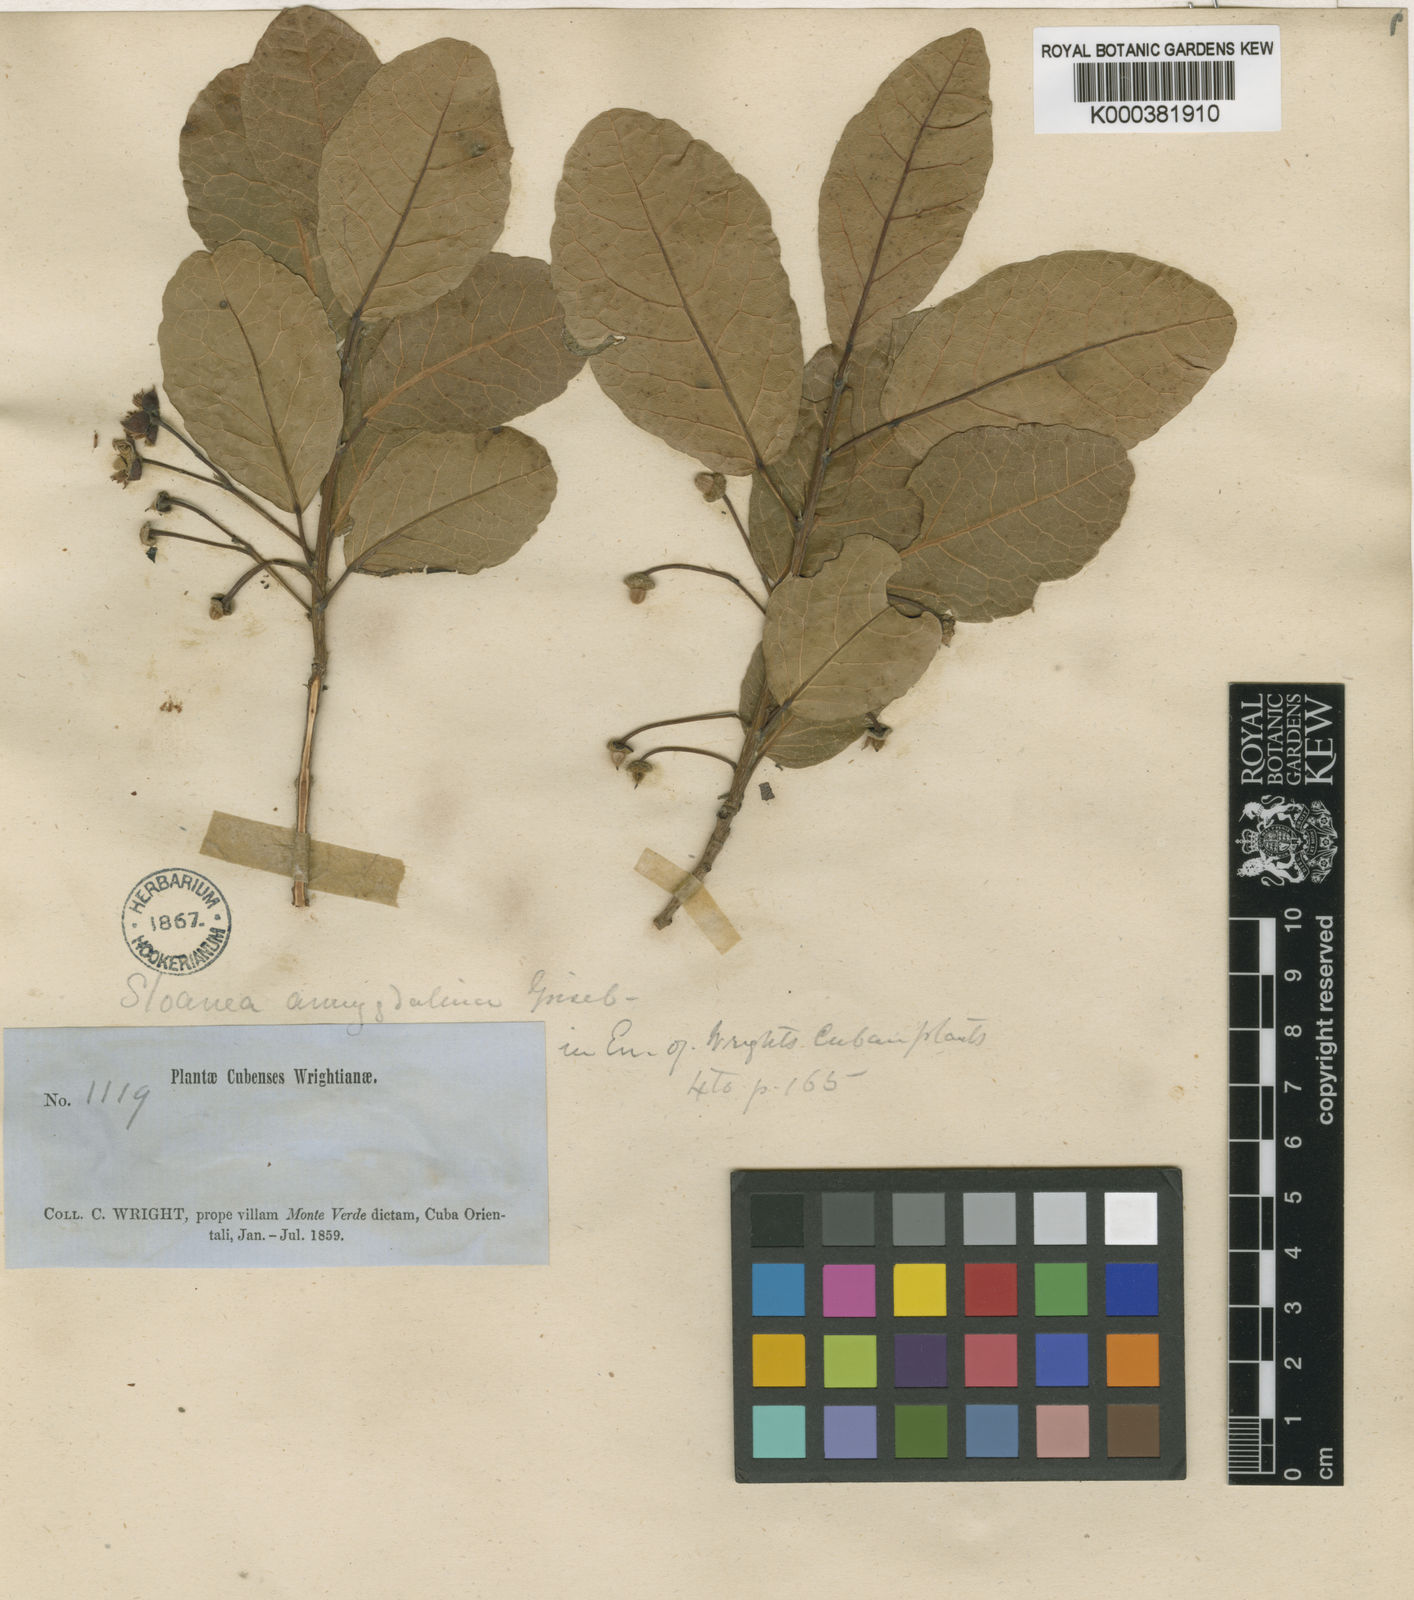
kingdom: Plantae
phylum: Tracheophyta
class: Magnoliopsida
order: Oxalidales
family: Elaeocarpaceae
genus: Sloanea
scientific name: Sloanea amygdalina
